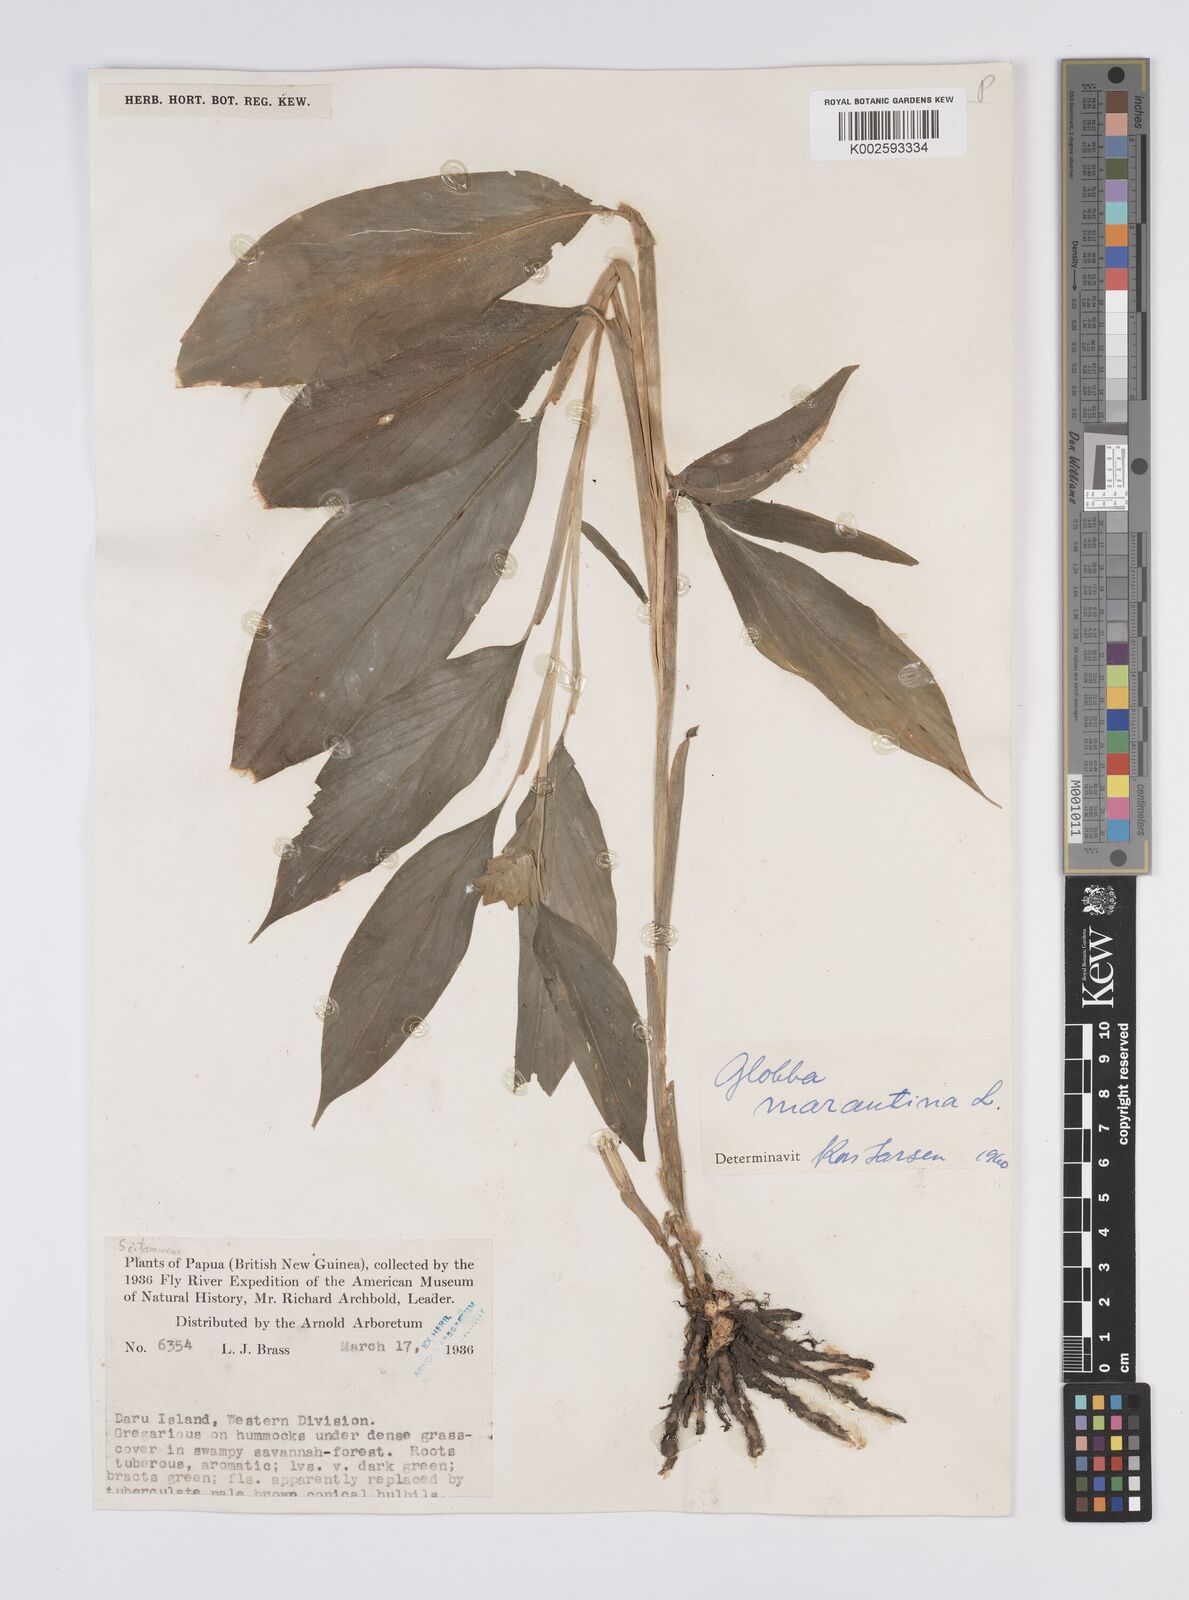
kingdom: Plantae
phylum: Tracheophyta
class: Liliopsida
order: Zingiberales
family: Zingiberaceae
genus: Globba
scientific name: Globba marantina
